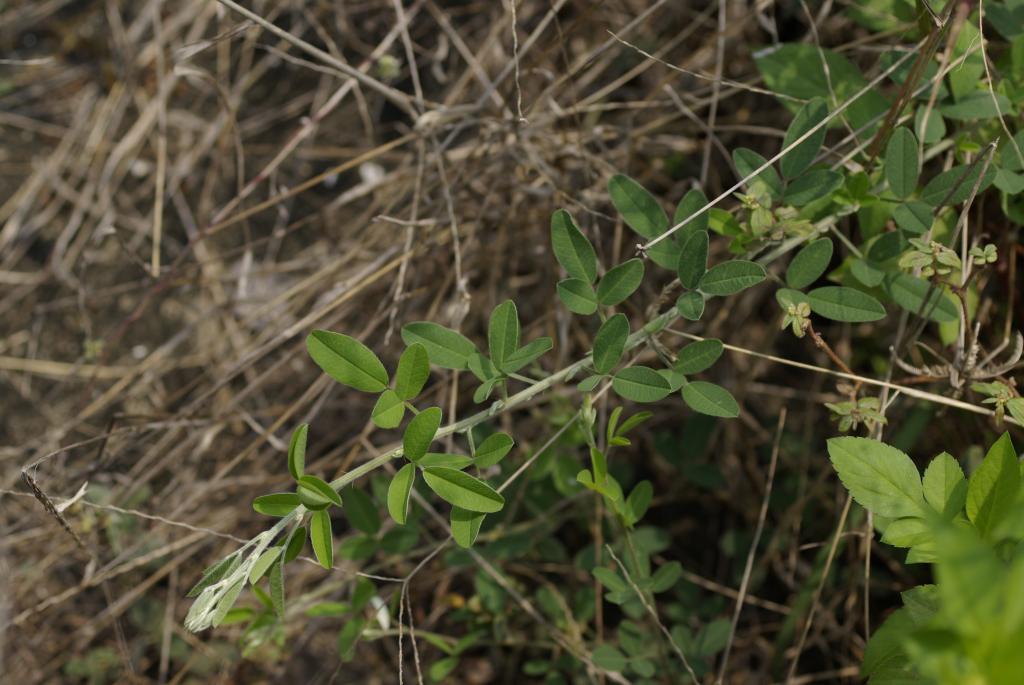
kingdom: Plantae
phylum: Tracheophyta
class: Magnoliopsida
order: Fabales
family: Fabaceae
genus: Lespedeza
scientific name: Lespedeza daurica
